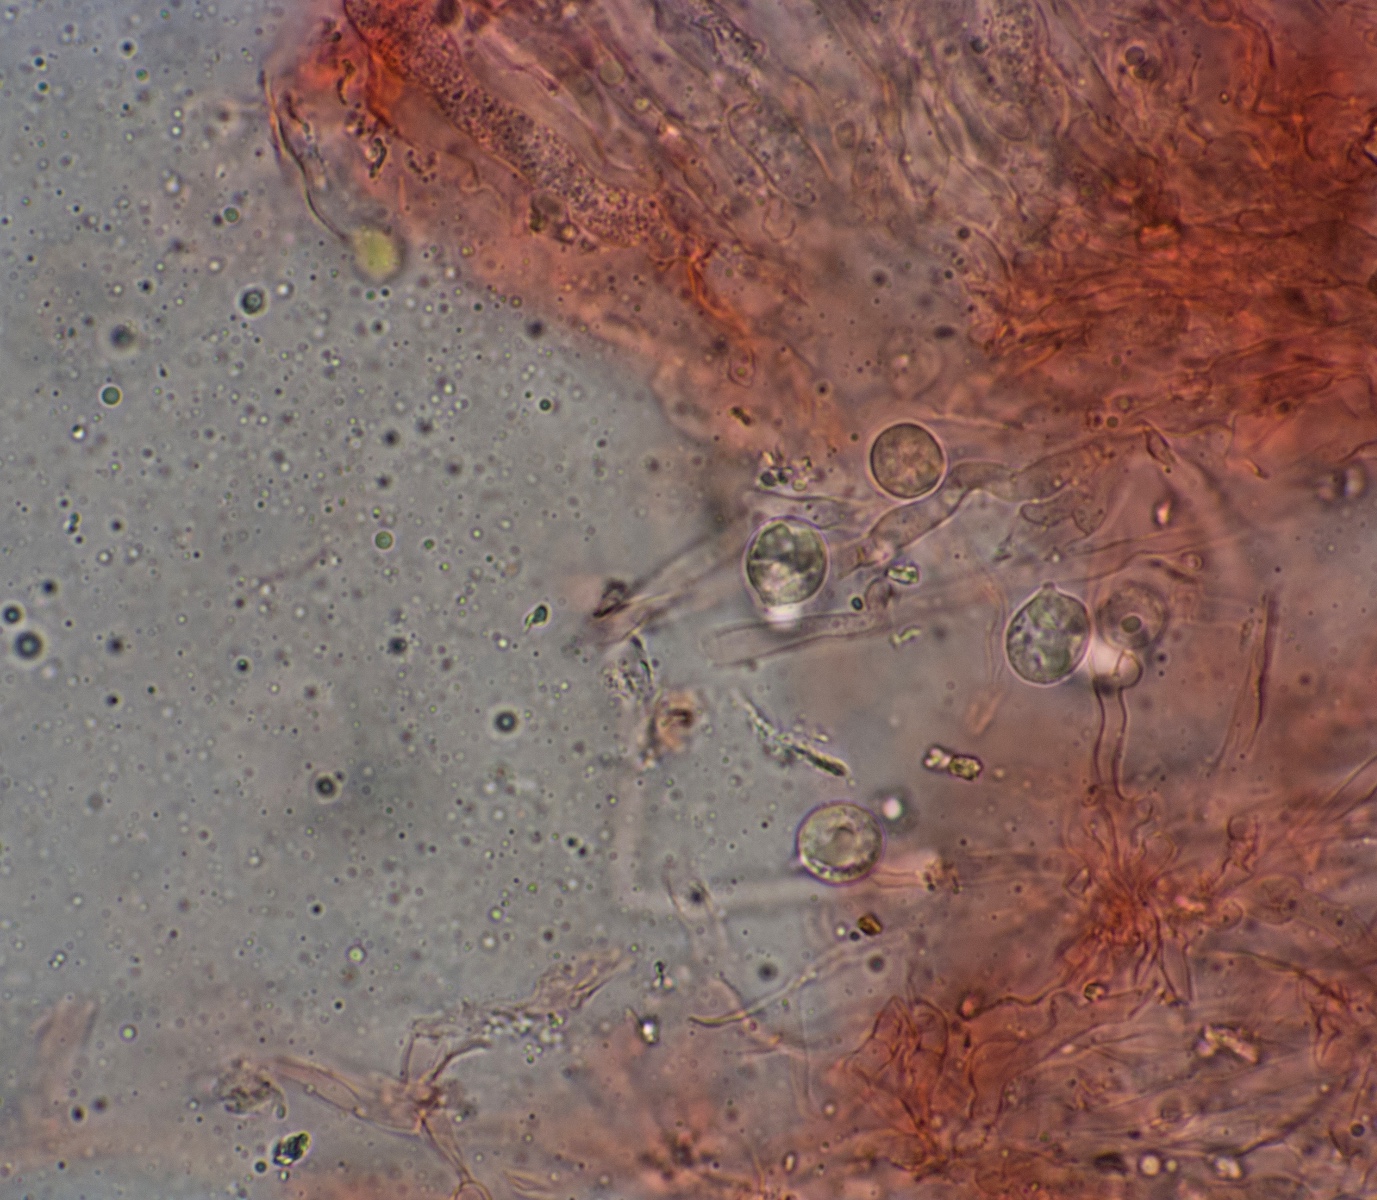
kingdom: Fungi
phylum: Basidiomycota
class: Agaricomycetes
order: Agaricales
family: Radulomycetaceae
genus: Radulomyces
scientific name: Radulomyces confluens
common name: glat naftalinskind
